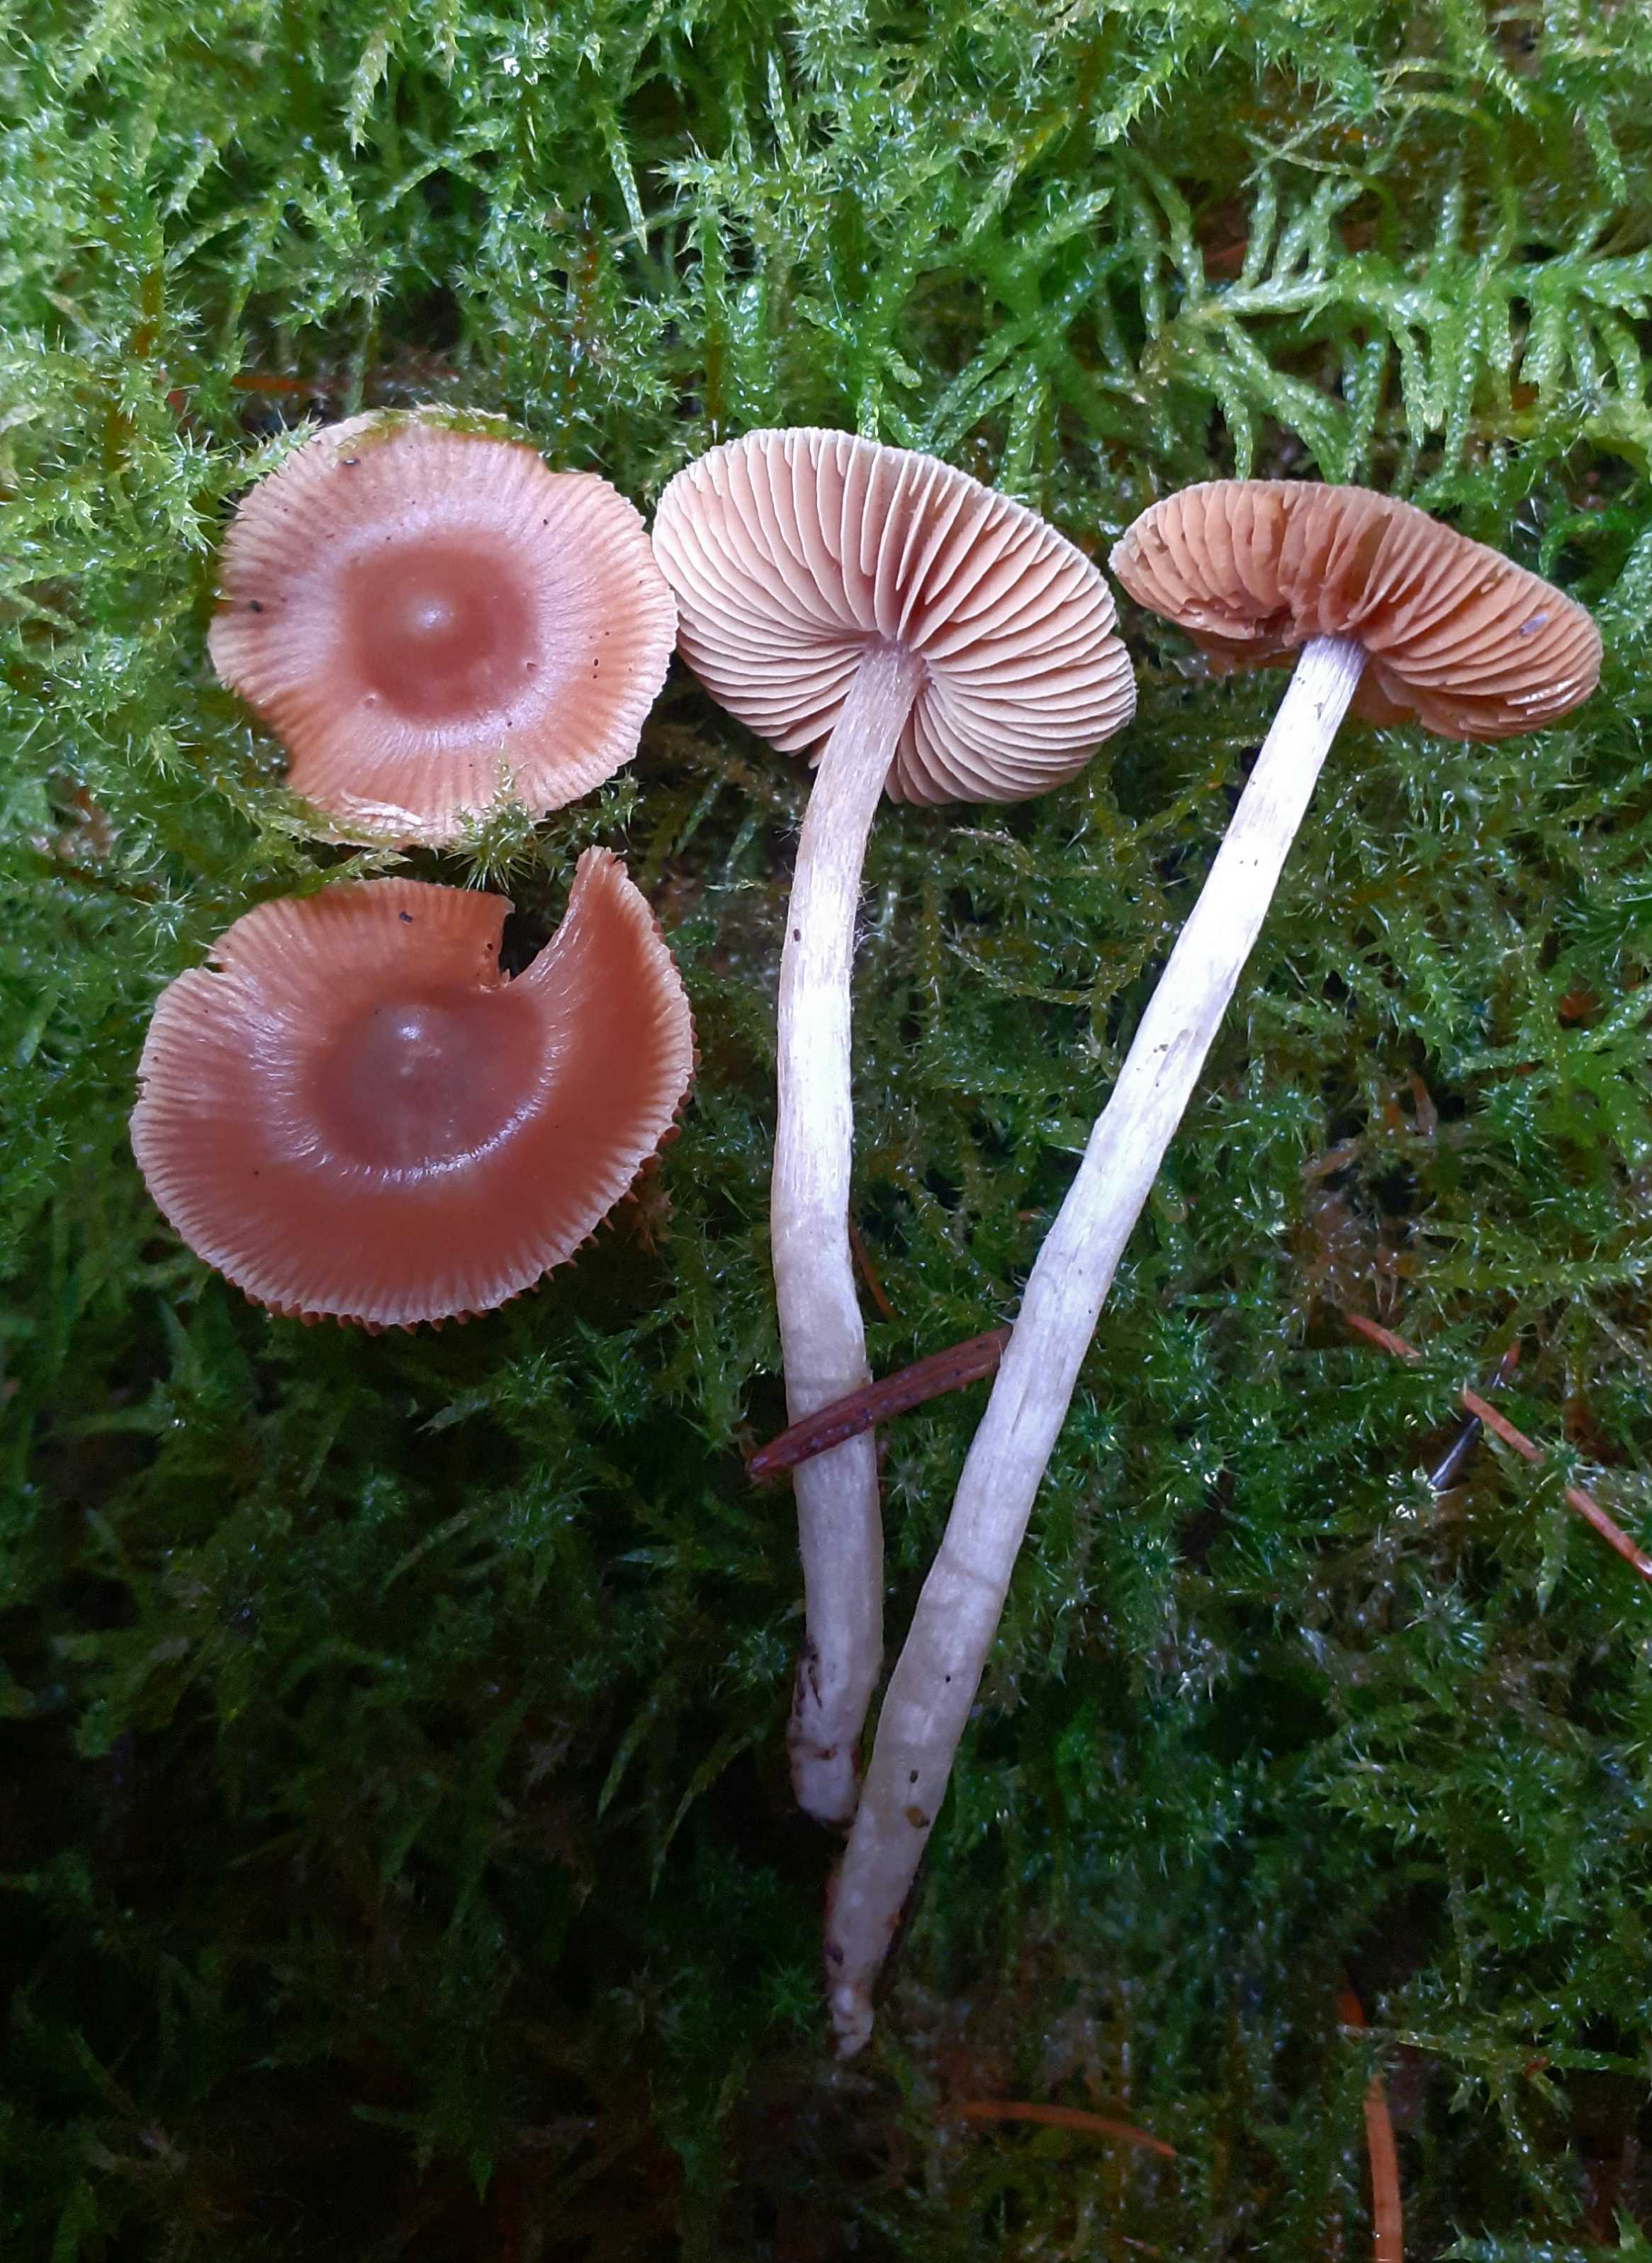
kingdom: Fungi
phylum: Basidiomycota
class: Agaricomycetes
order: Agaricales
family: Cortinariaceae
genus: Cortinarius
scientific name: Cortinarius
